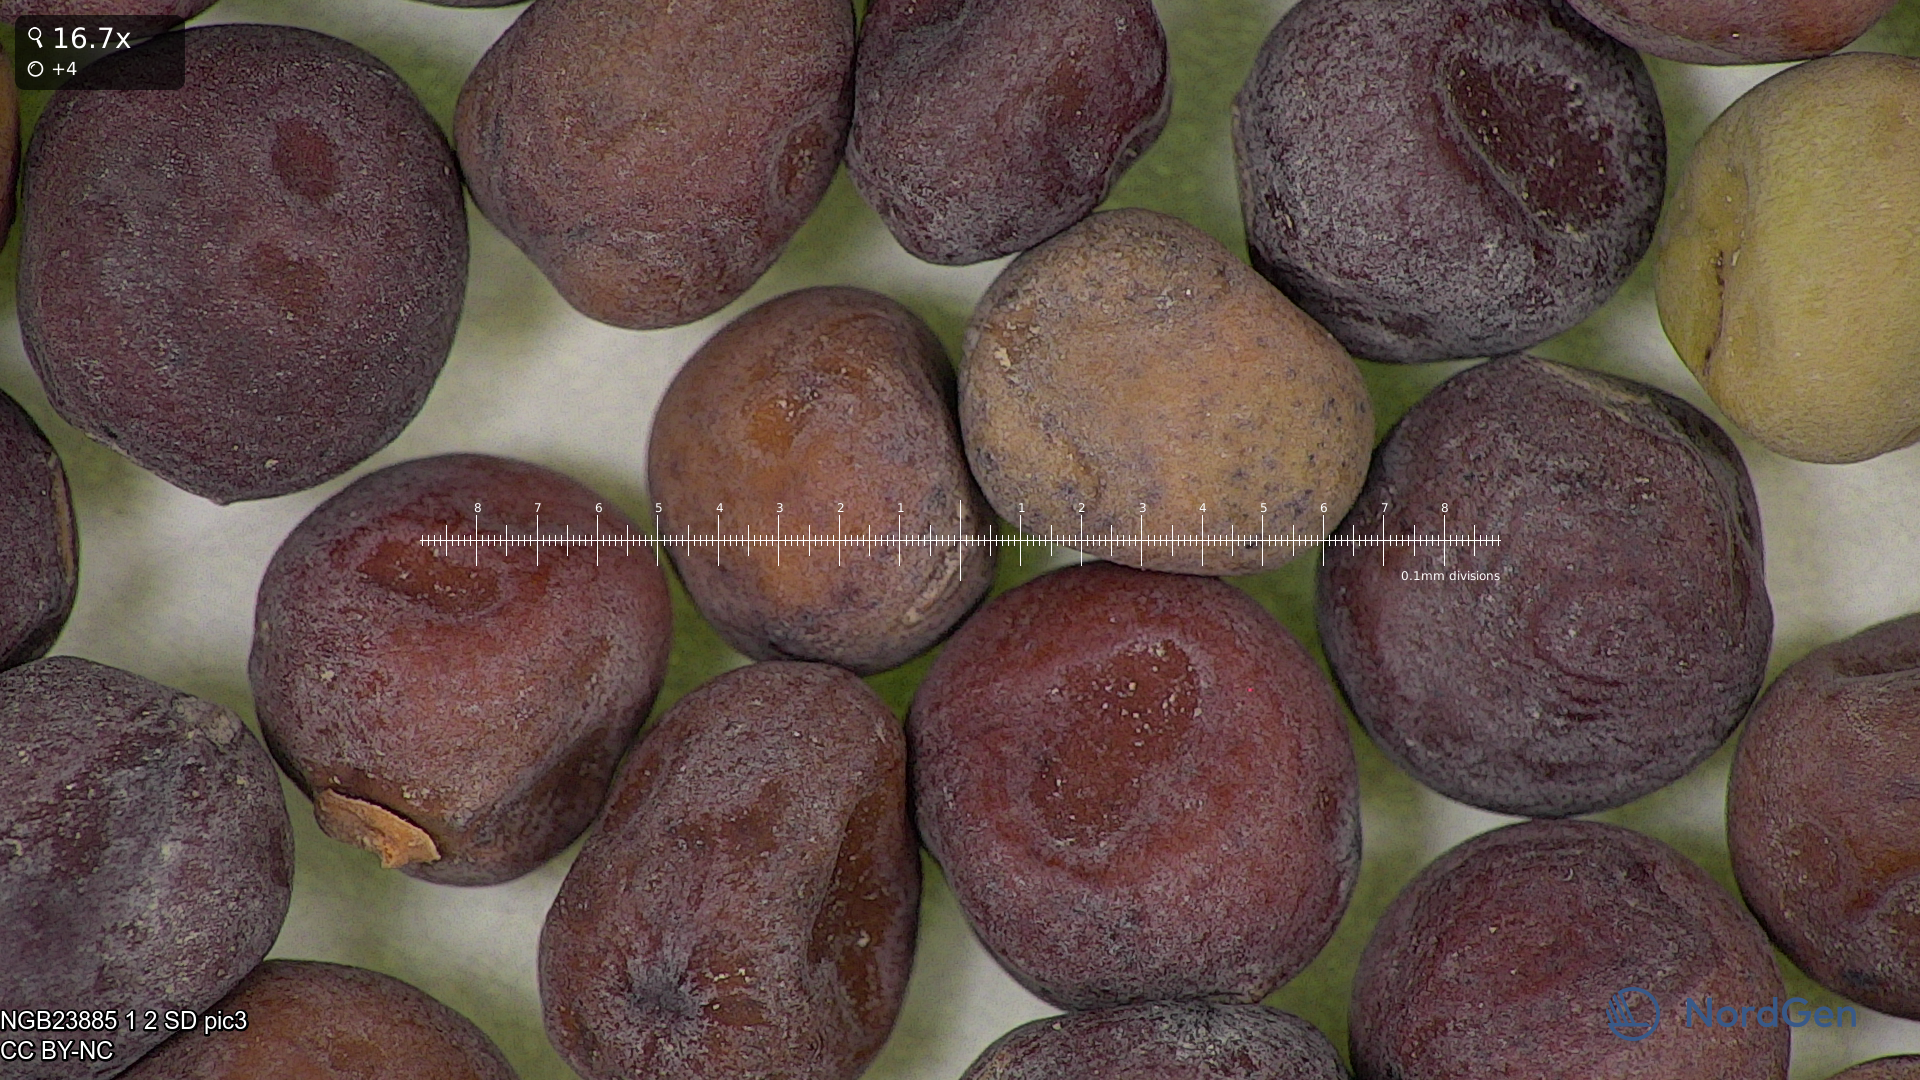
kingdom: Plantae
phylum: Tracheophyta
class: Magnoliopsida
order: Fabales
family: Fabaceae
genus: Lathyrus
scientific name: Lathyrus oleraceus
